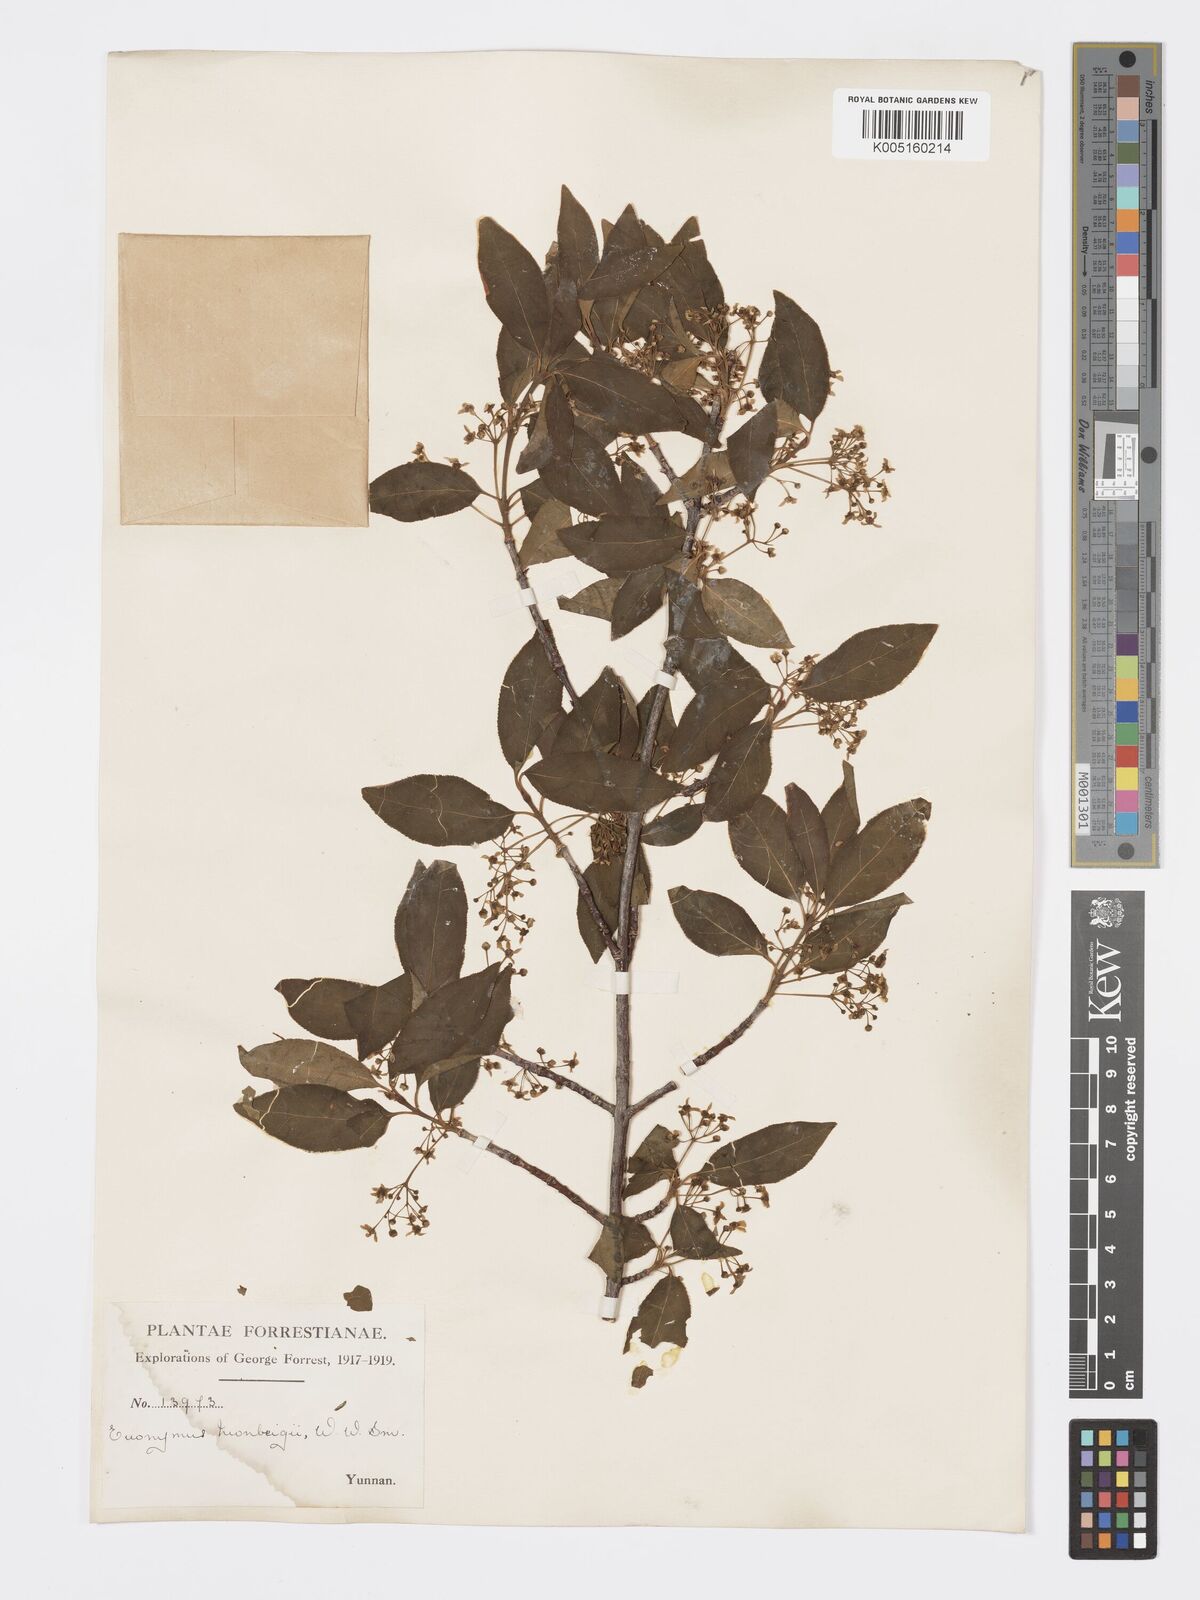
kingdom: Plantae
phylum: Tracheophyta
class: Magnoliopsida
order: Celastrales
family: Celastraceae
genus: Euonymus
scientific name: Euonymus sanguineus
